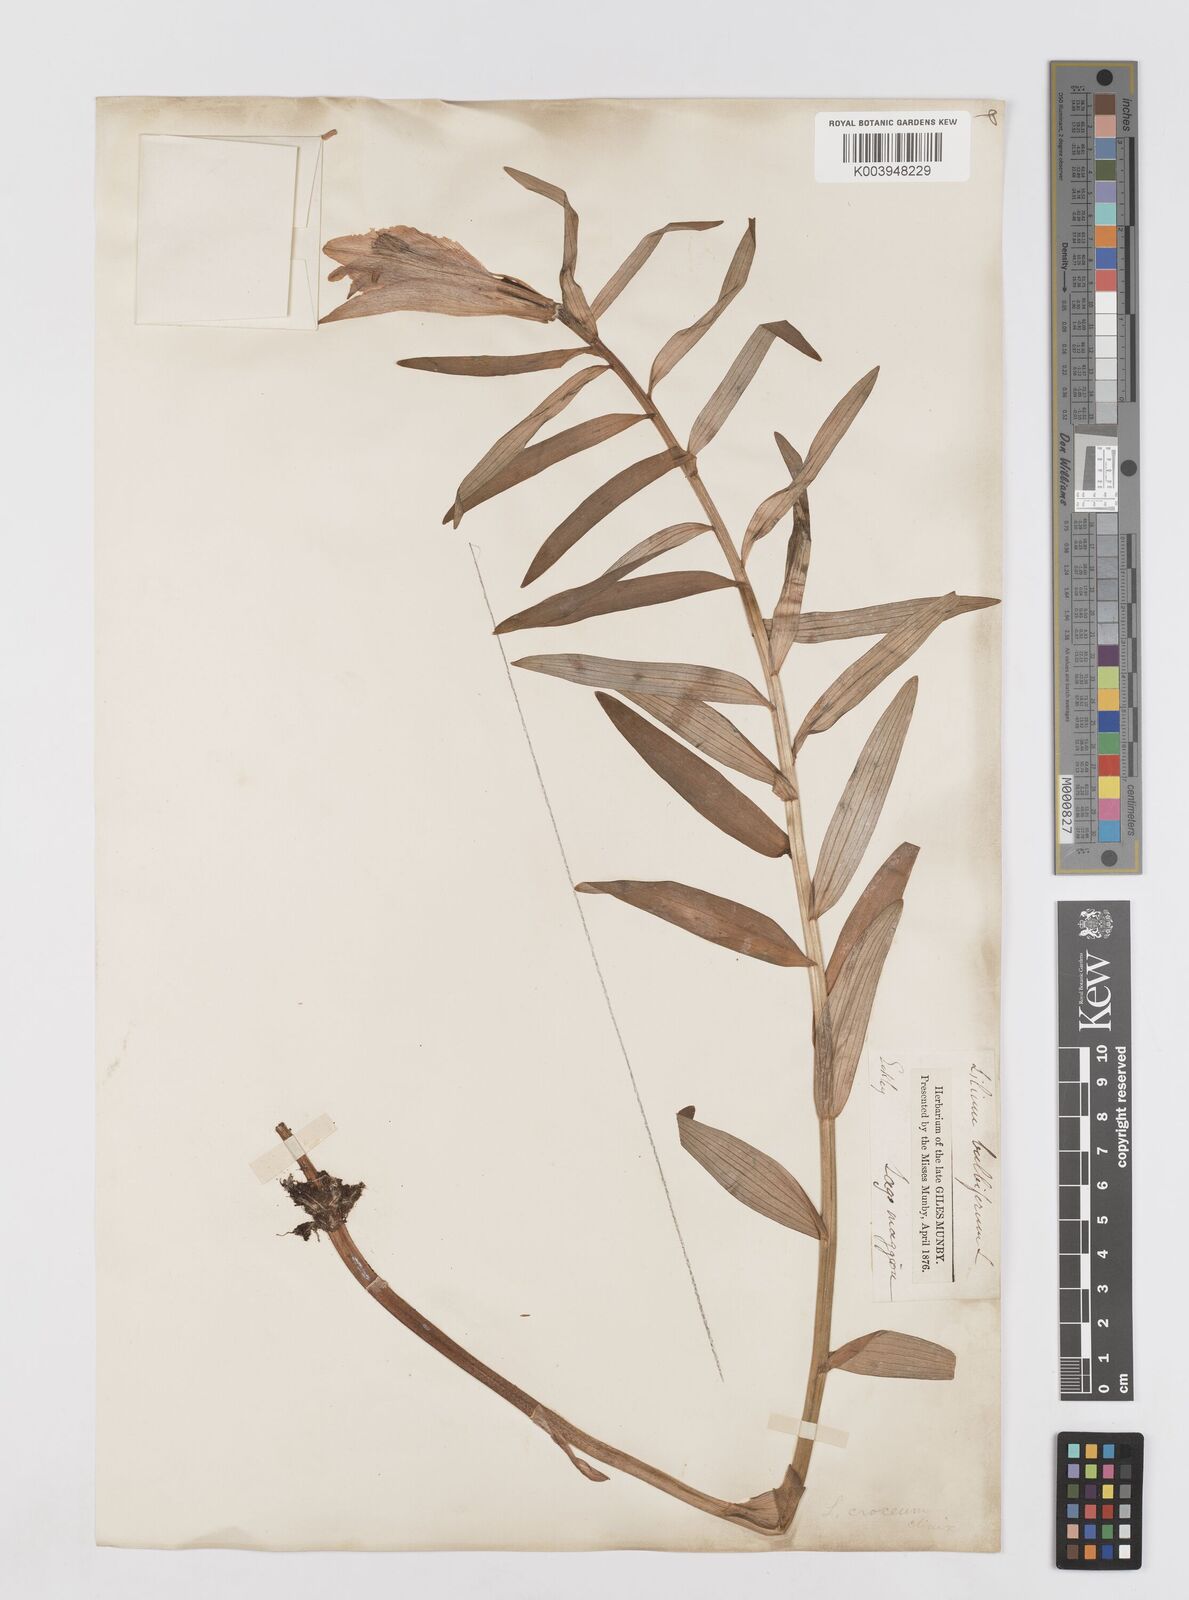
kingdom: Plantae
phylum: Tracheophyta
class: Liliopsida
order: Liliales
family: Liliaceae
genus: Lilium
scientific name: Lilium bulbiferum
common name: Orange lily
